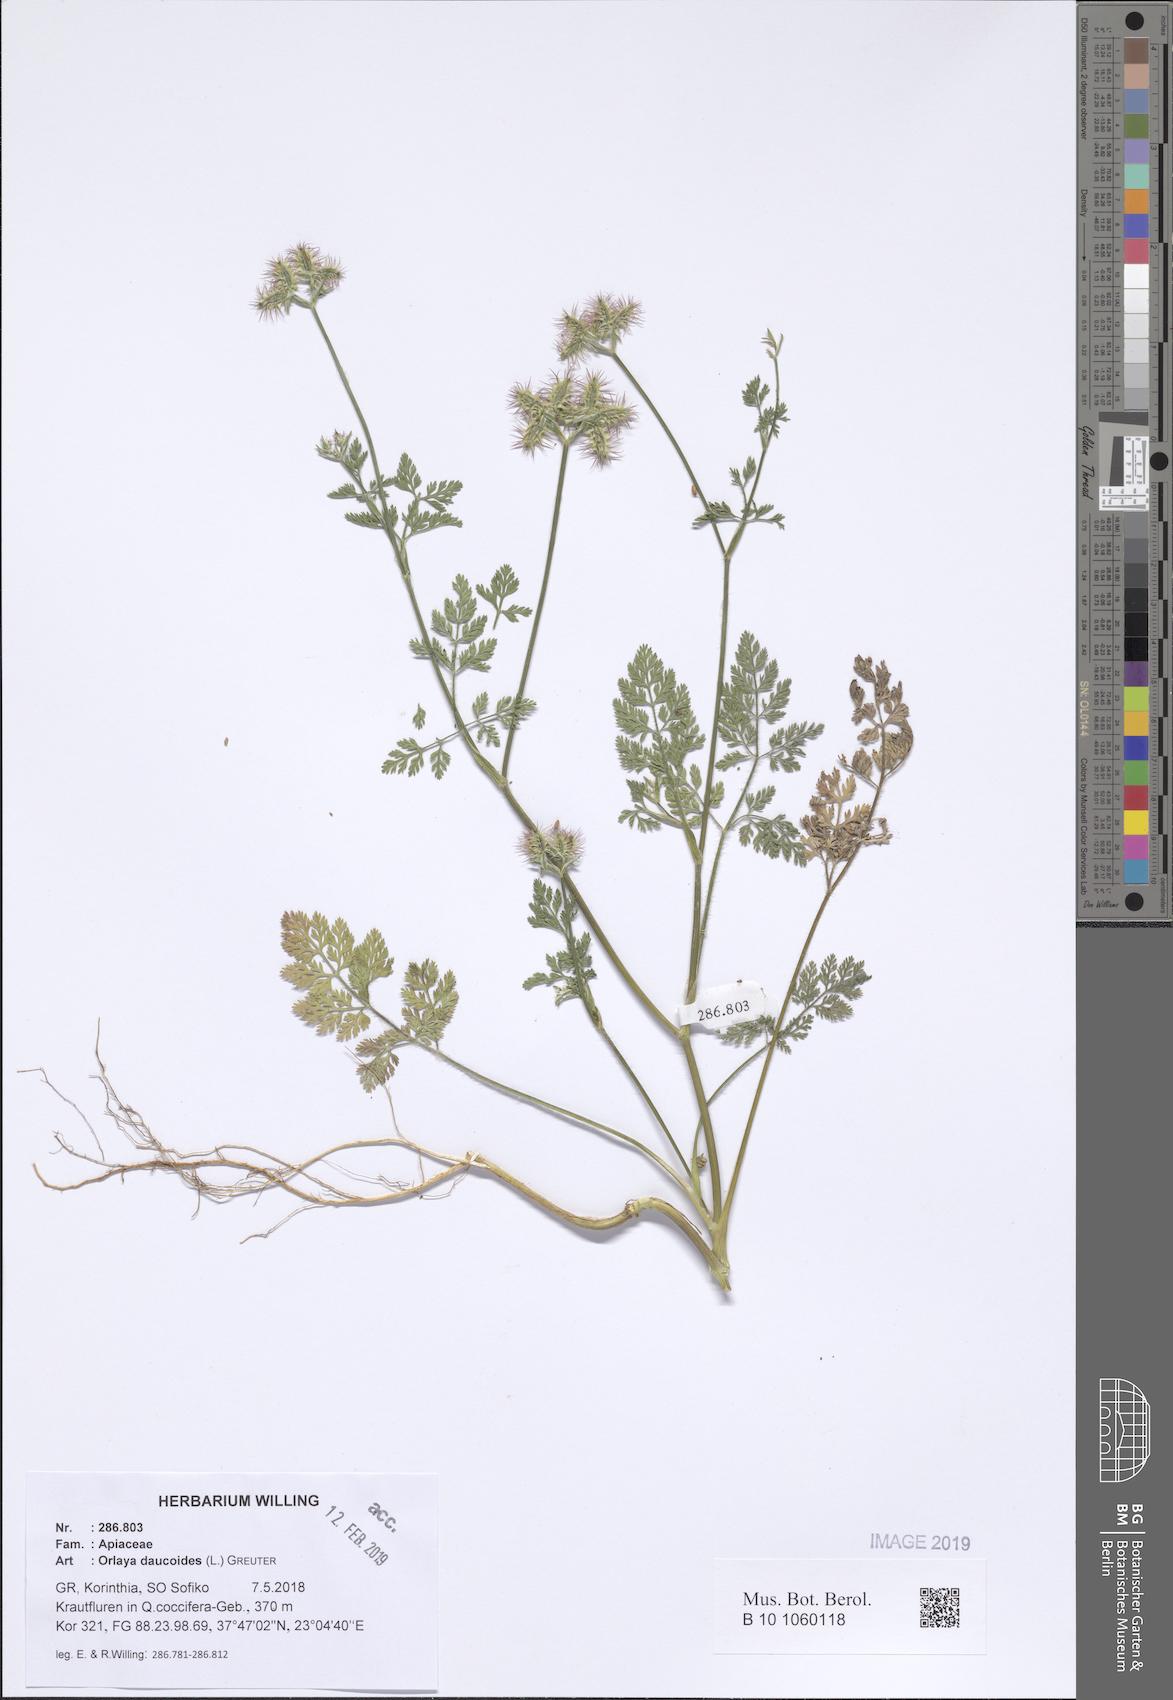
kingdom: Plantae
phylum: Tracheophyta
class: Magnoliopsida
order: Apiales
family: Apiaceae
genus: Orlaya
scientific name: Orlaya daucoides
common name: Flat-fruit orlaya
